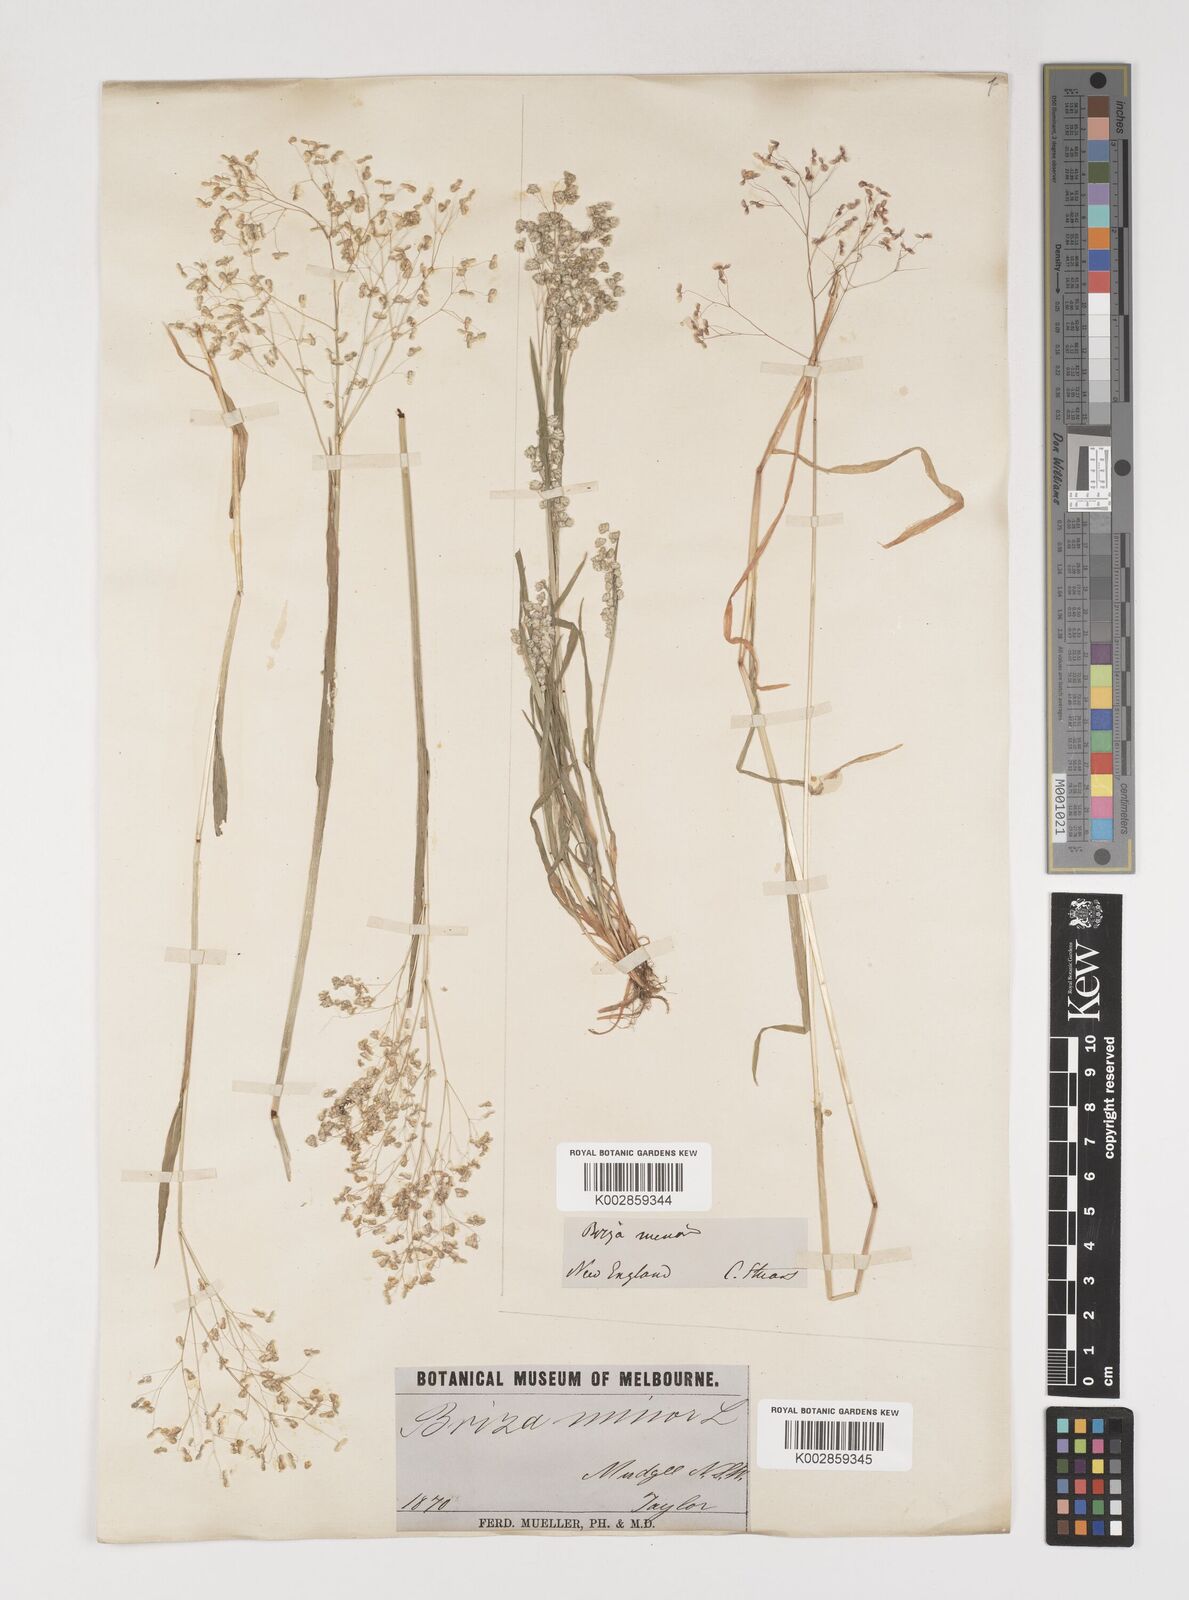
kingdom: Plantae
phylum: Tracheophyta
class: Liliopsida
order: Poales
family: Poaceae
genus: Briza
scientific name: Briza minor
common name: Lesser quaking-grass
